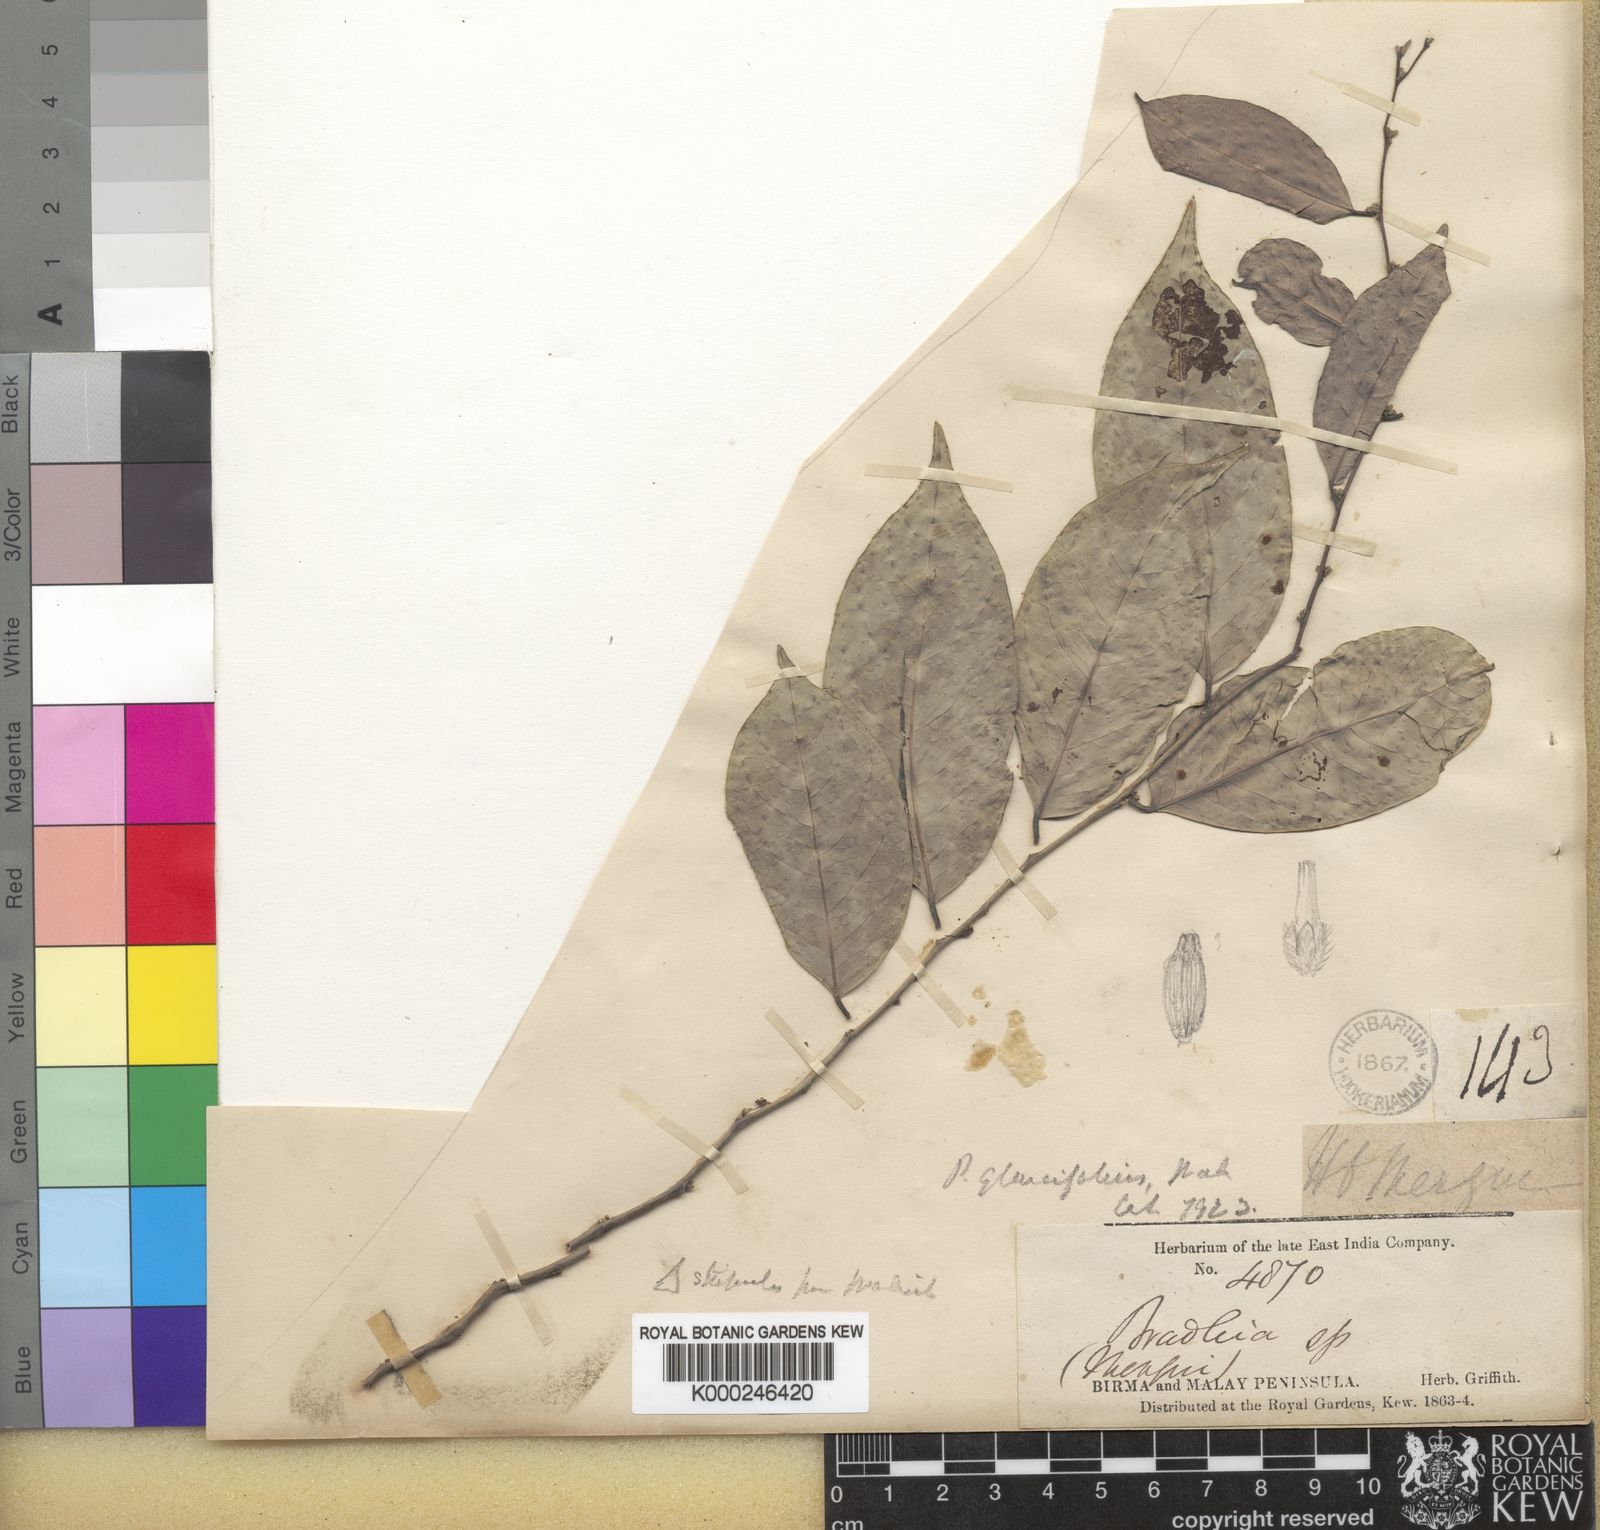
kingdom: Plantae
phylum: Tracheophyta
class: Magnoliopsida
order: Malpighiales
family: Phyllanthaceae
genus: Glochidion
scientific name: Glochidion lutescens
